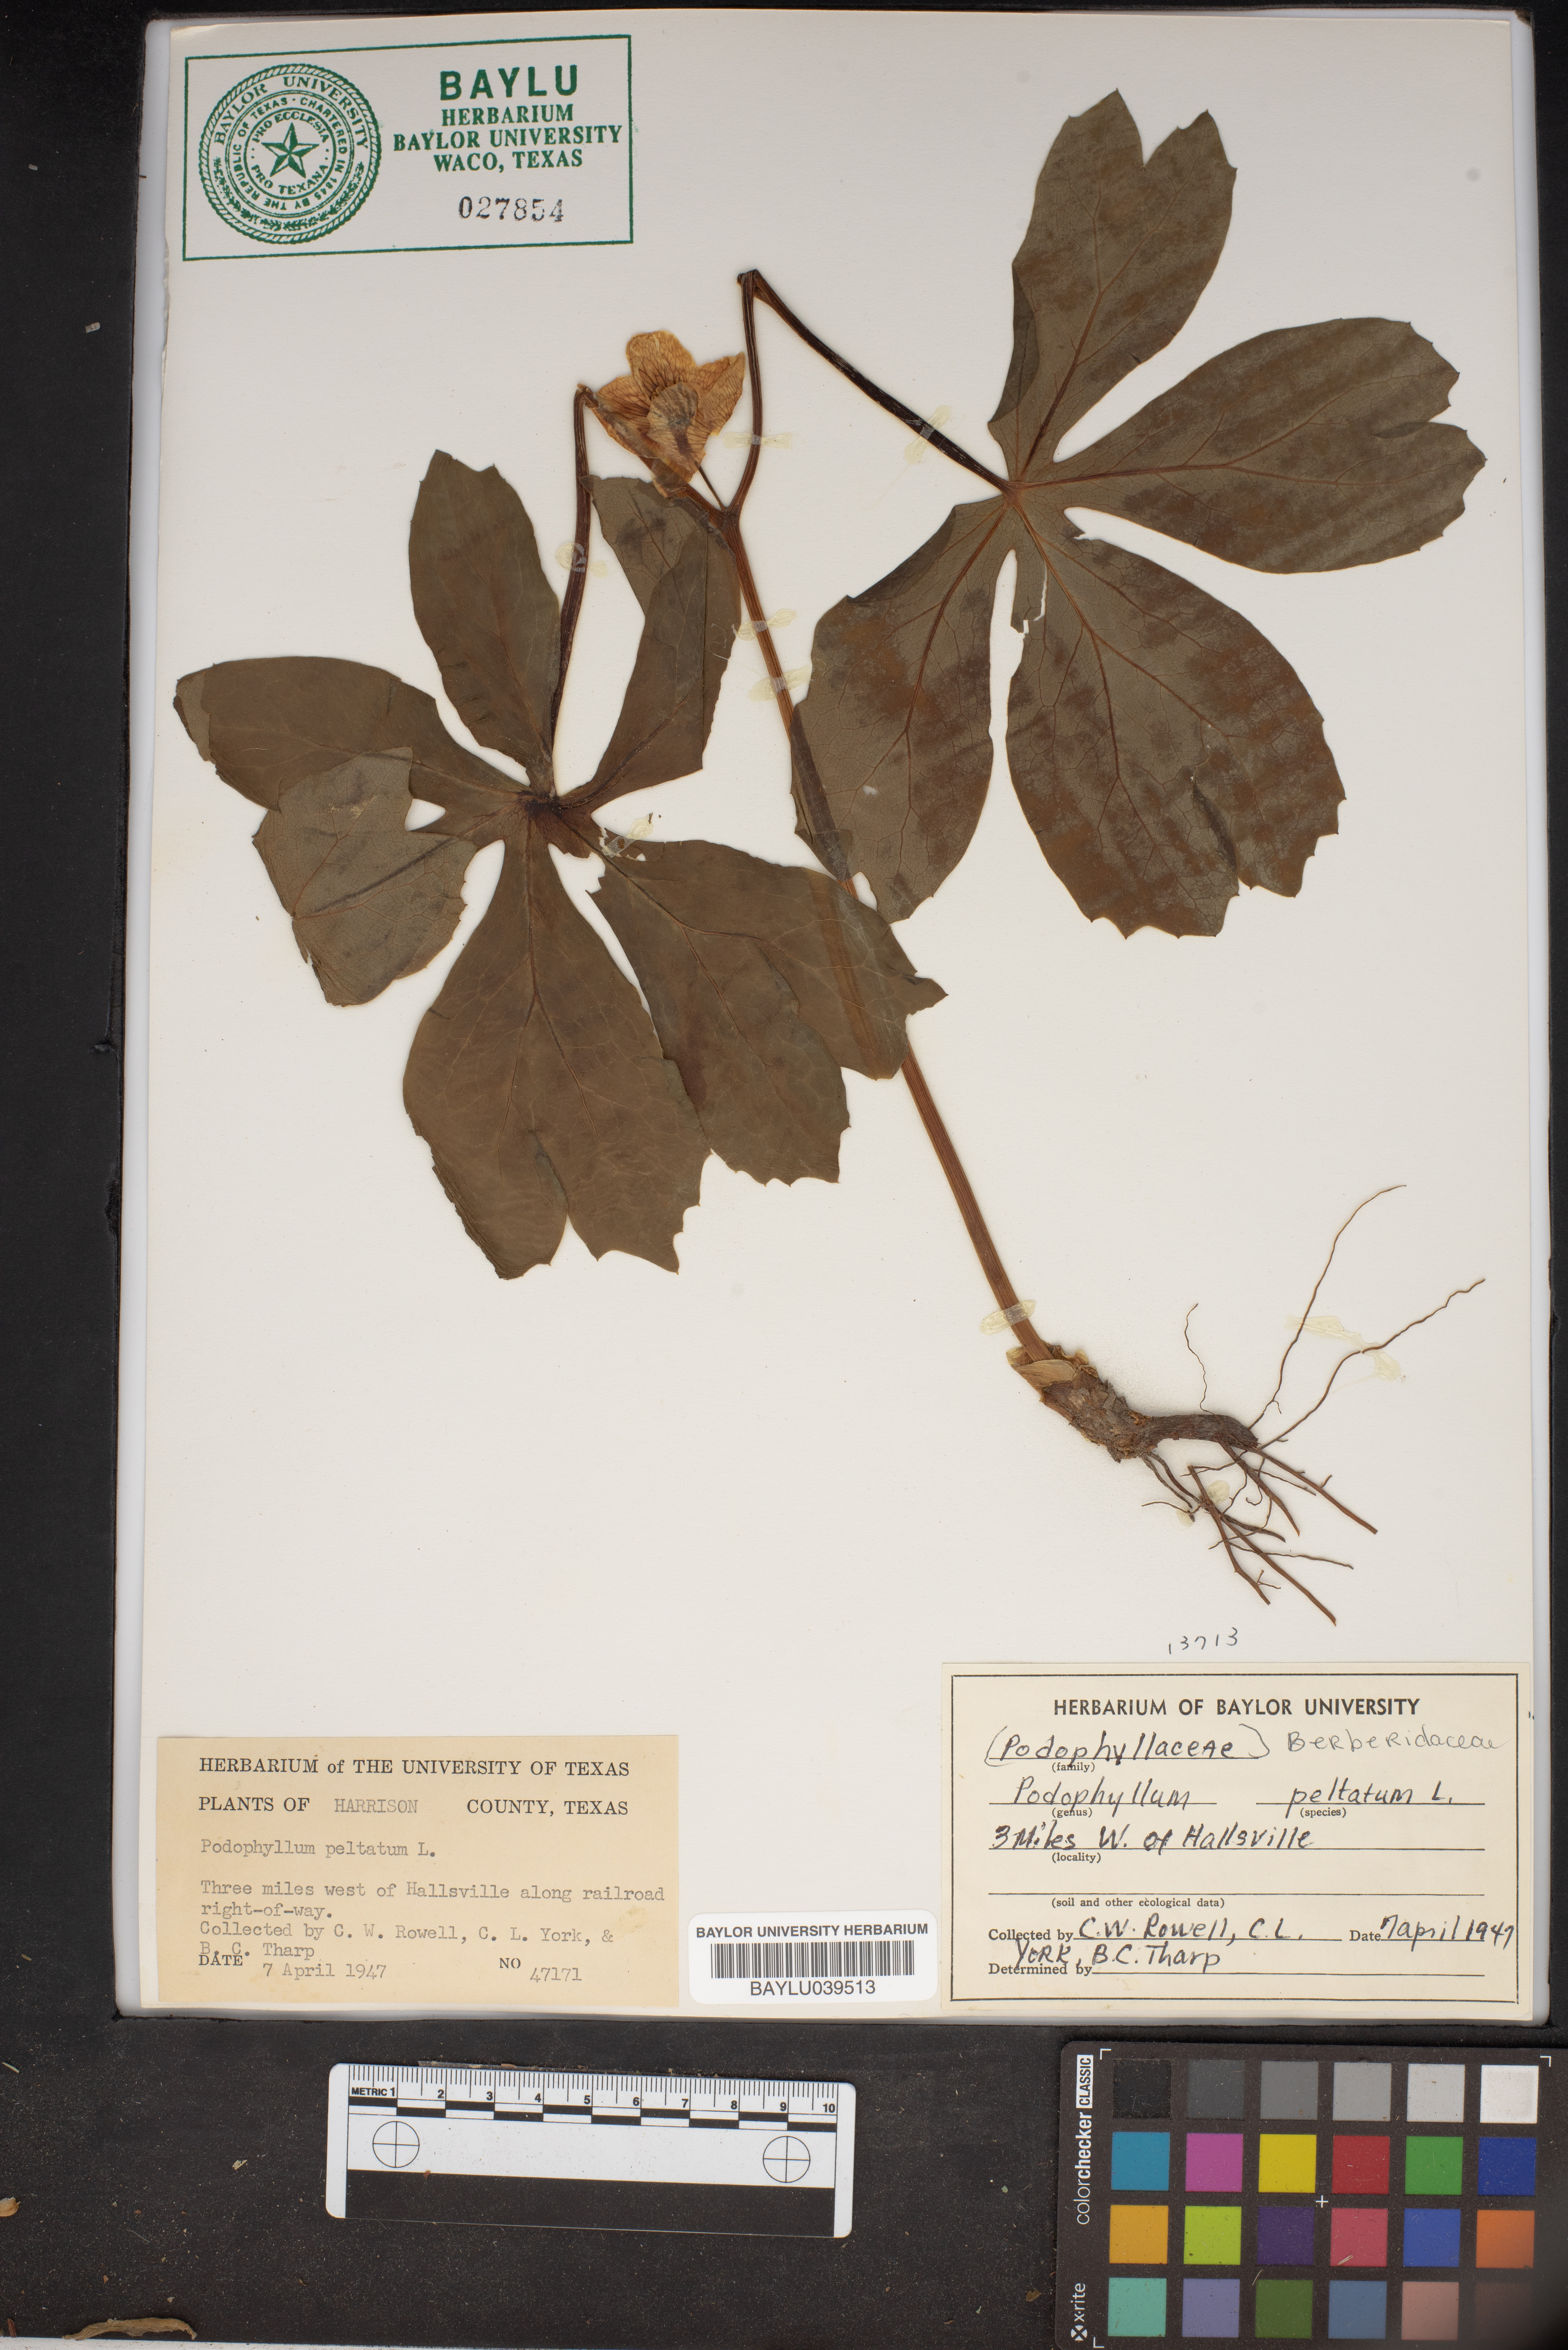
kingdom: Plantae
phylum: Tracheophyta
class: Magnoliopsida
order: Ranunculales
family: Berberidaceae
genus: Podophyllum
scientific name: Podophyllum peltatum
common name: Wild mandrake
